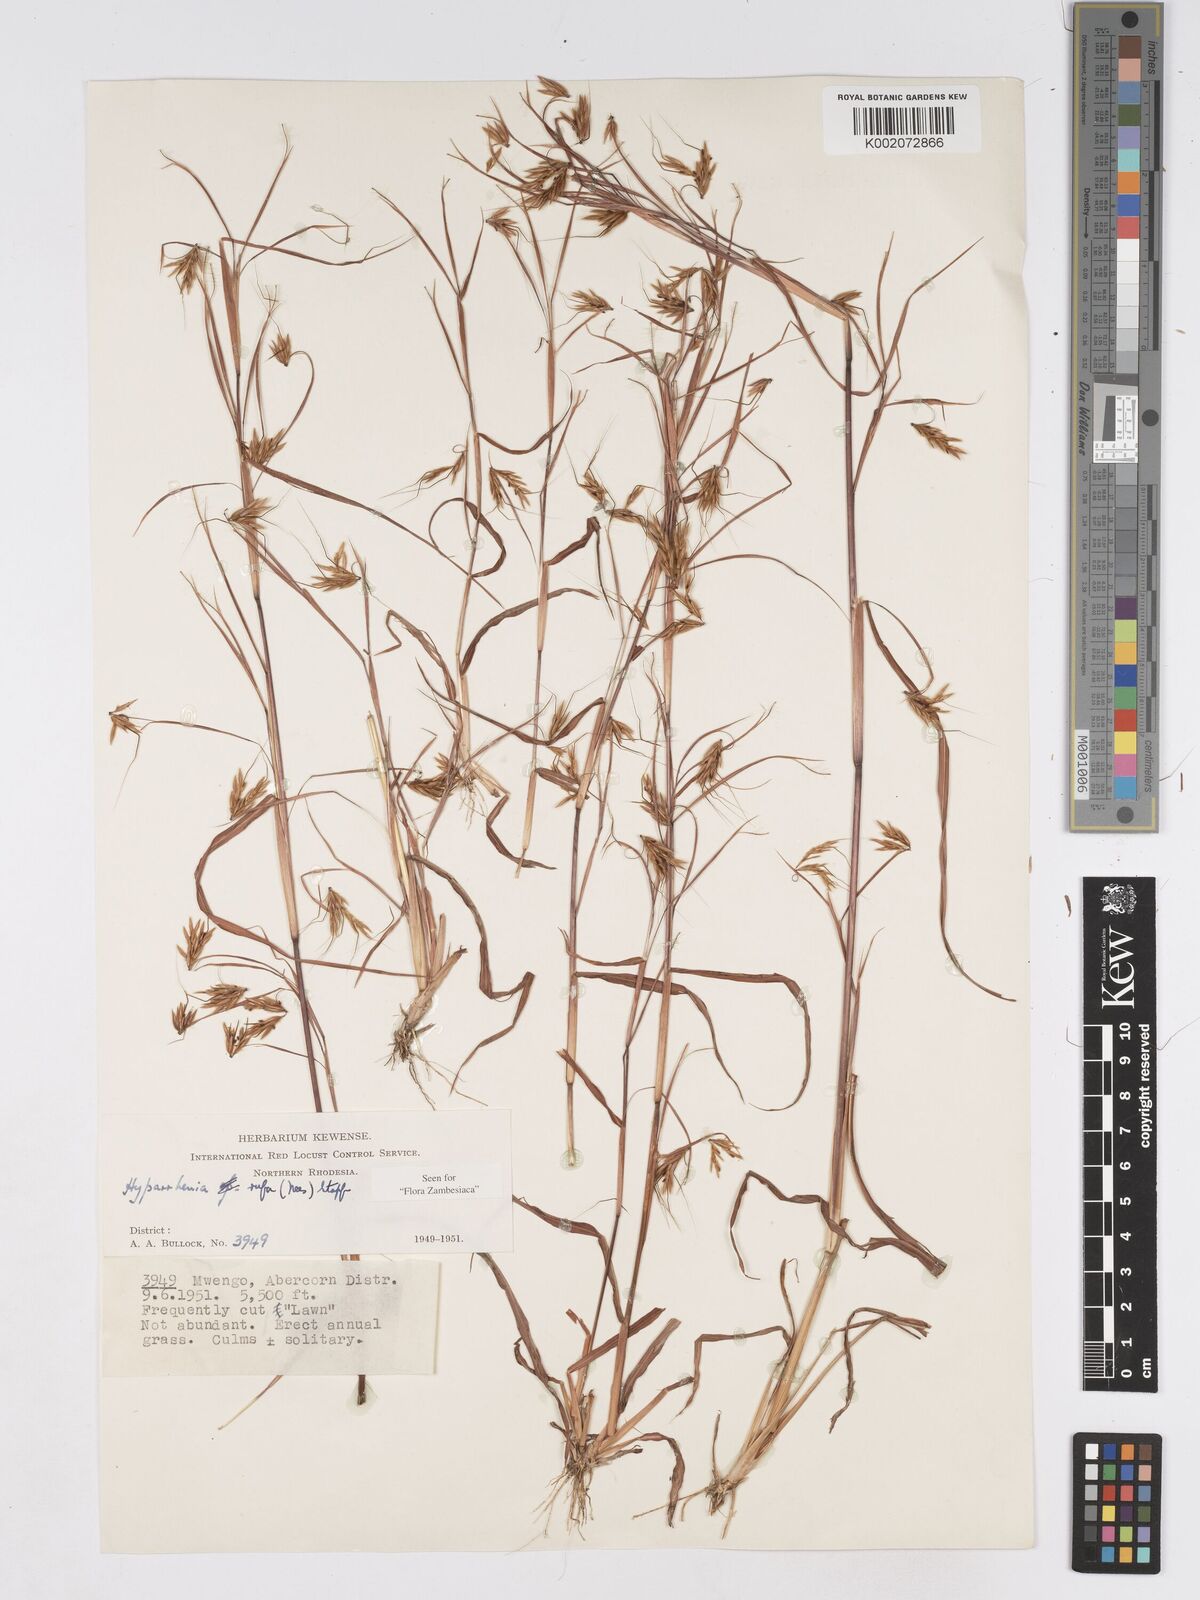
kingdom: Plantae
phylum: Tracheophyta
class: Liliopsida
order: Poales
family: Poaceae
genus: Hyparrhenia
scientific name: Hyparrhenia rufa
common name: Jaraguagrass
